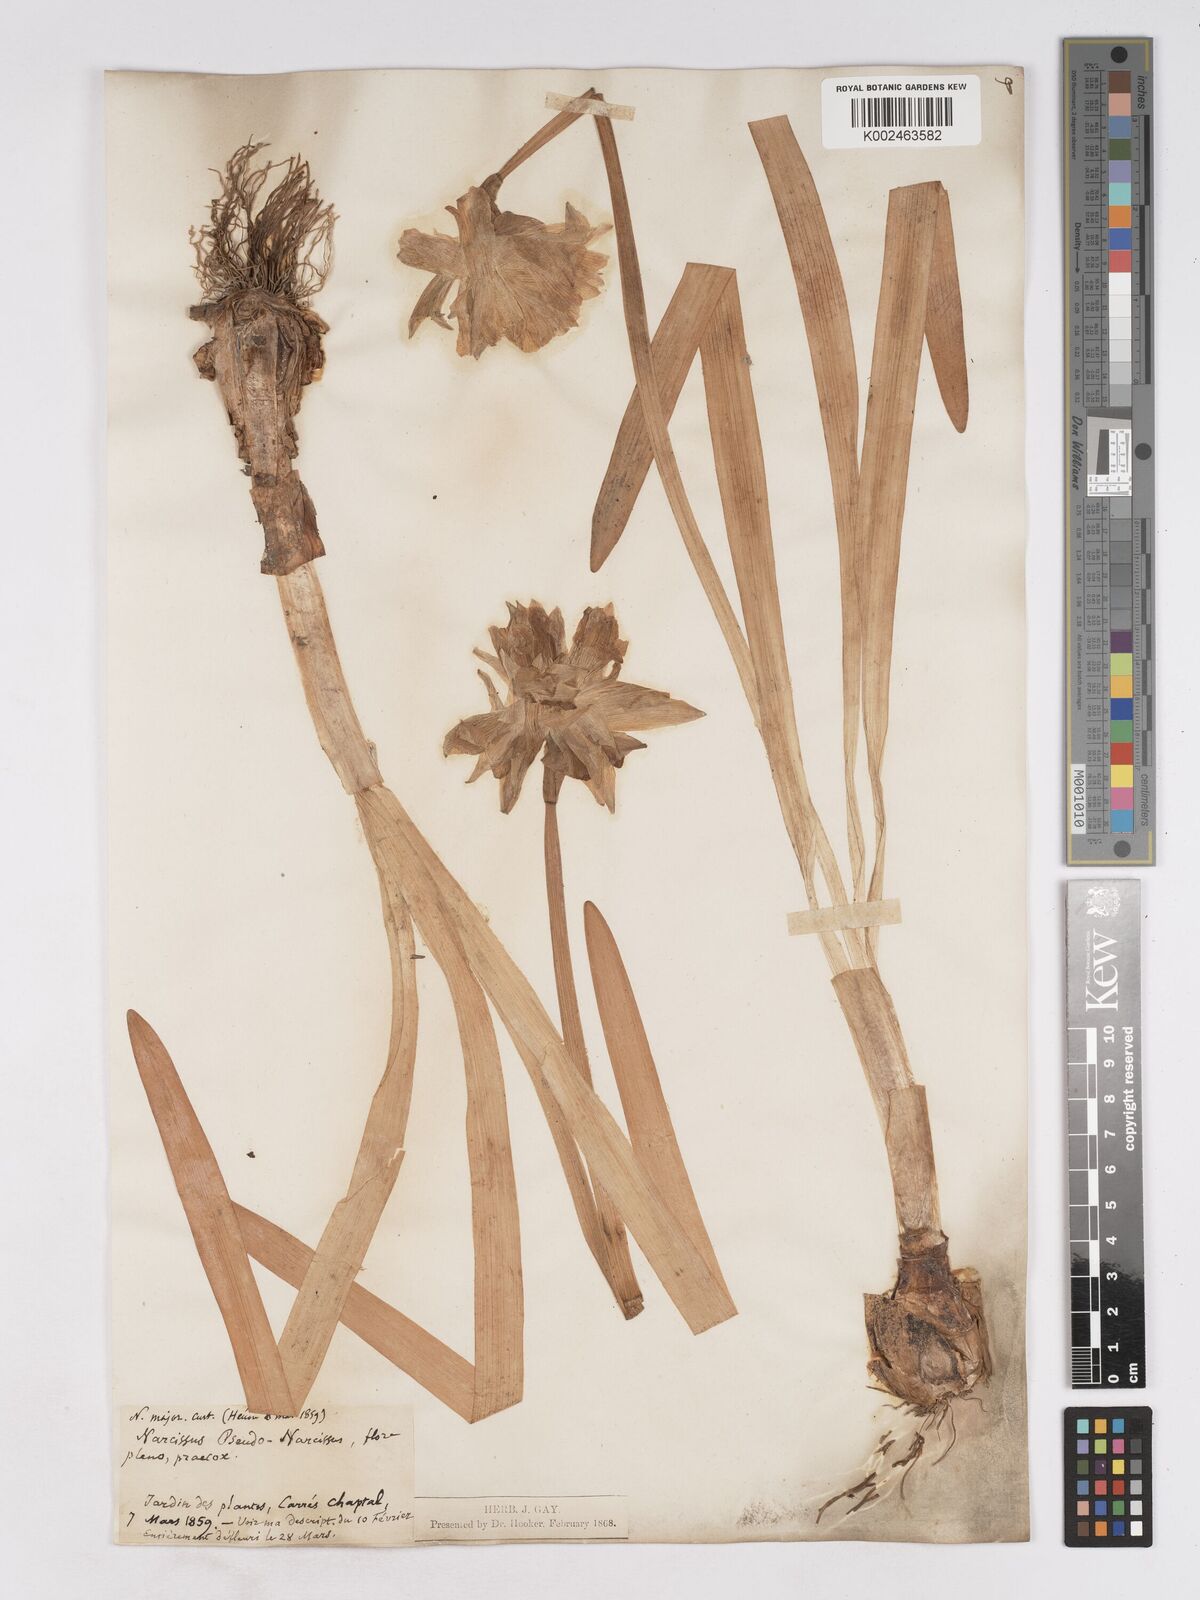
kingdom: Plantae
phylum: Tracheophyta
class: Liliopsida
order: Asparagales
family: Amaryllidaceae
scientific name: Amaryllidaceae
